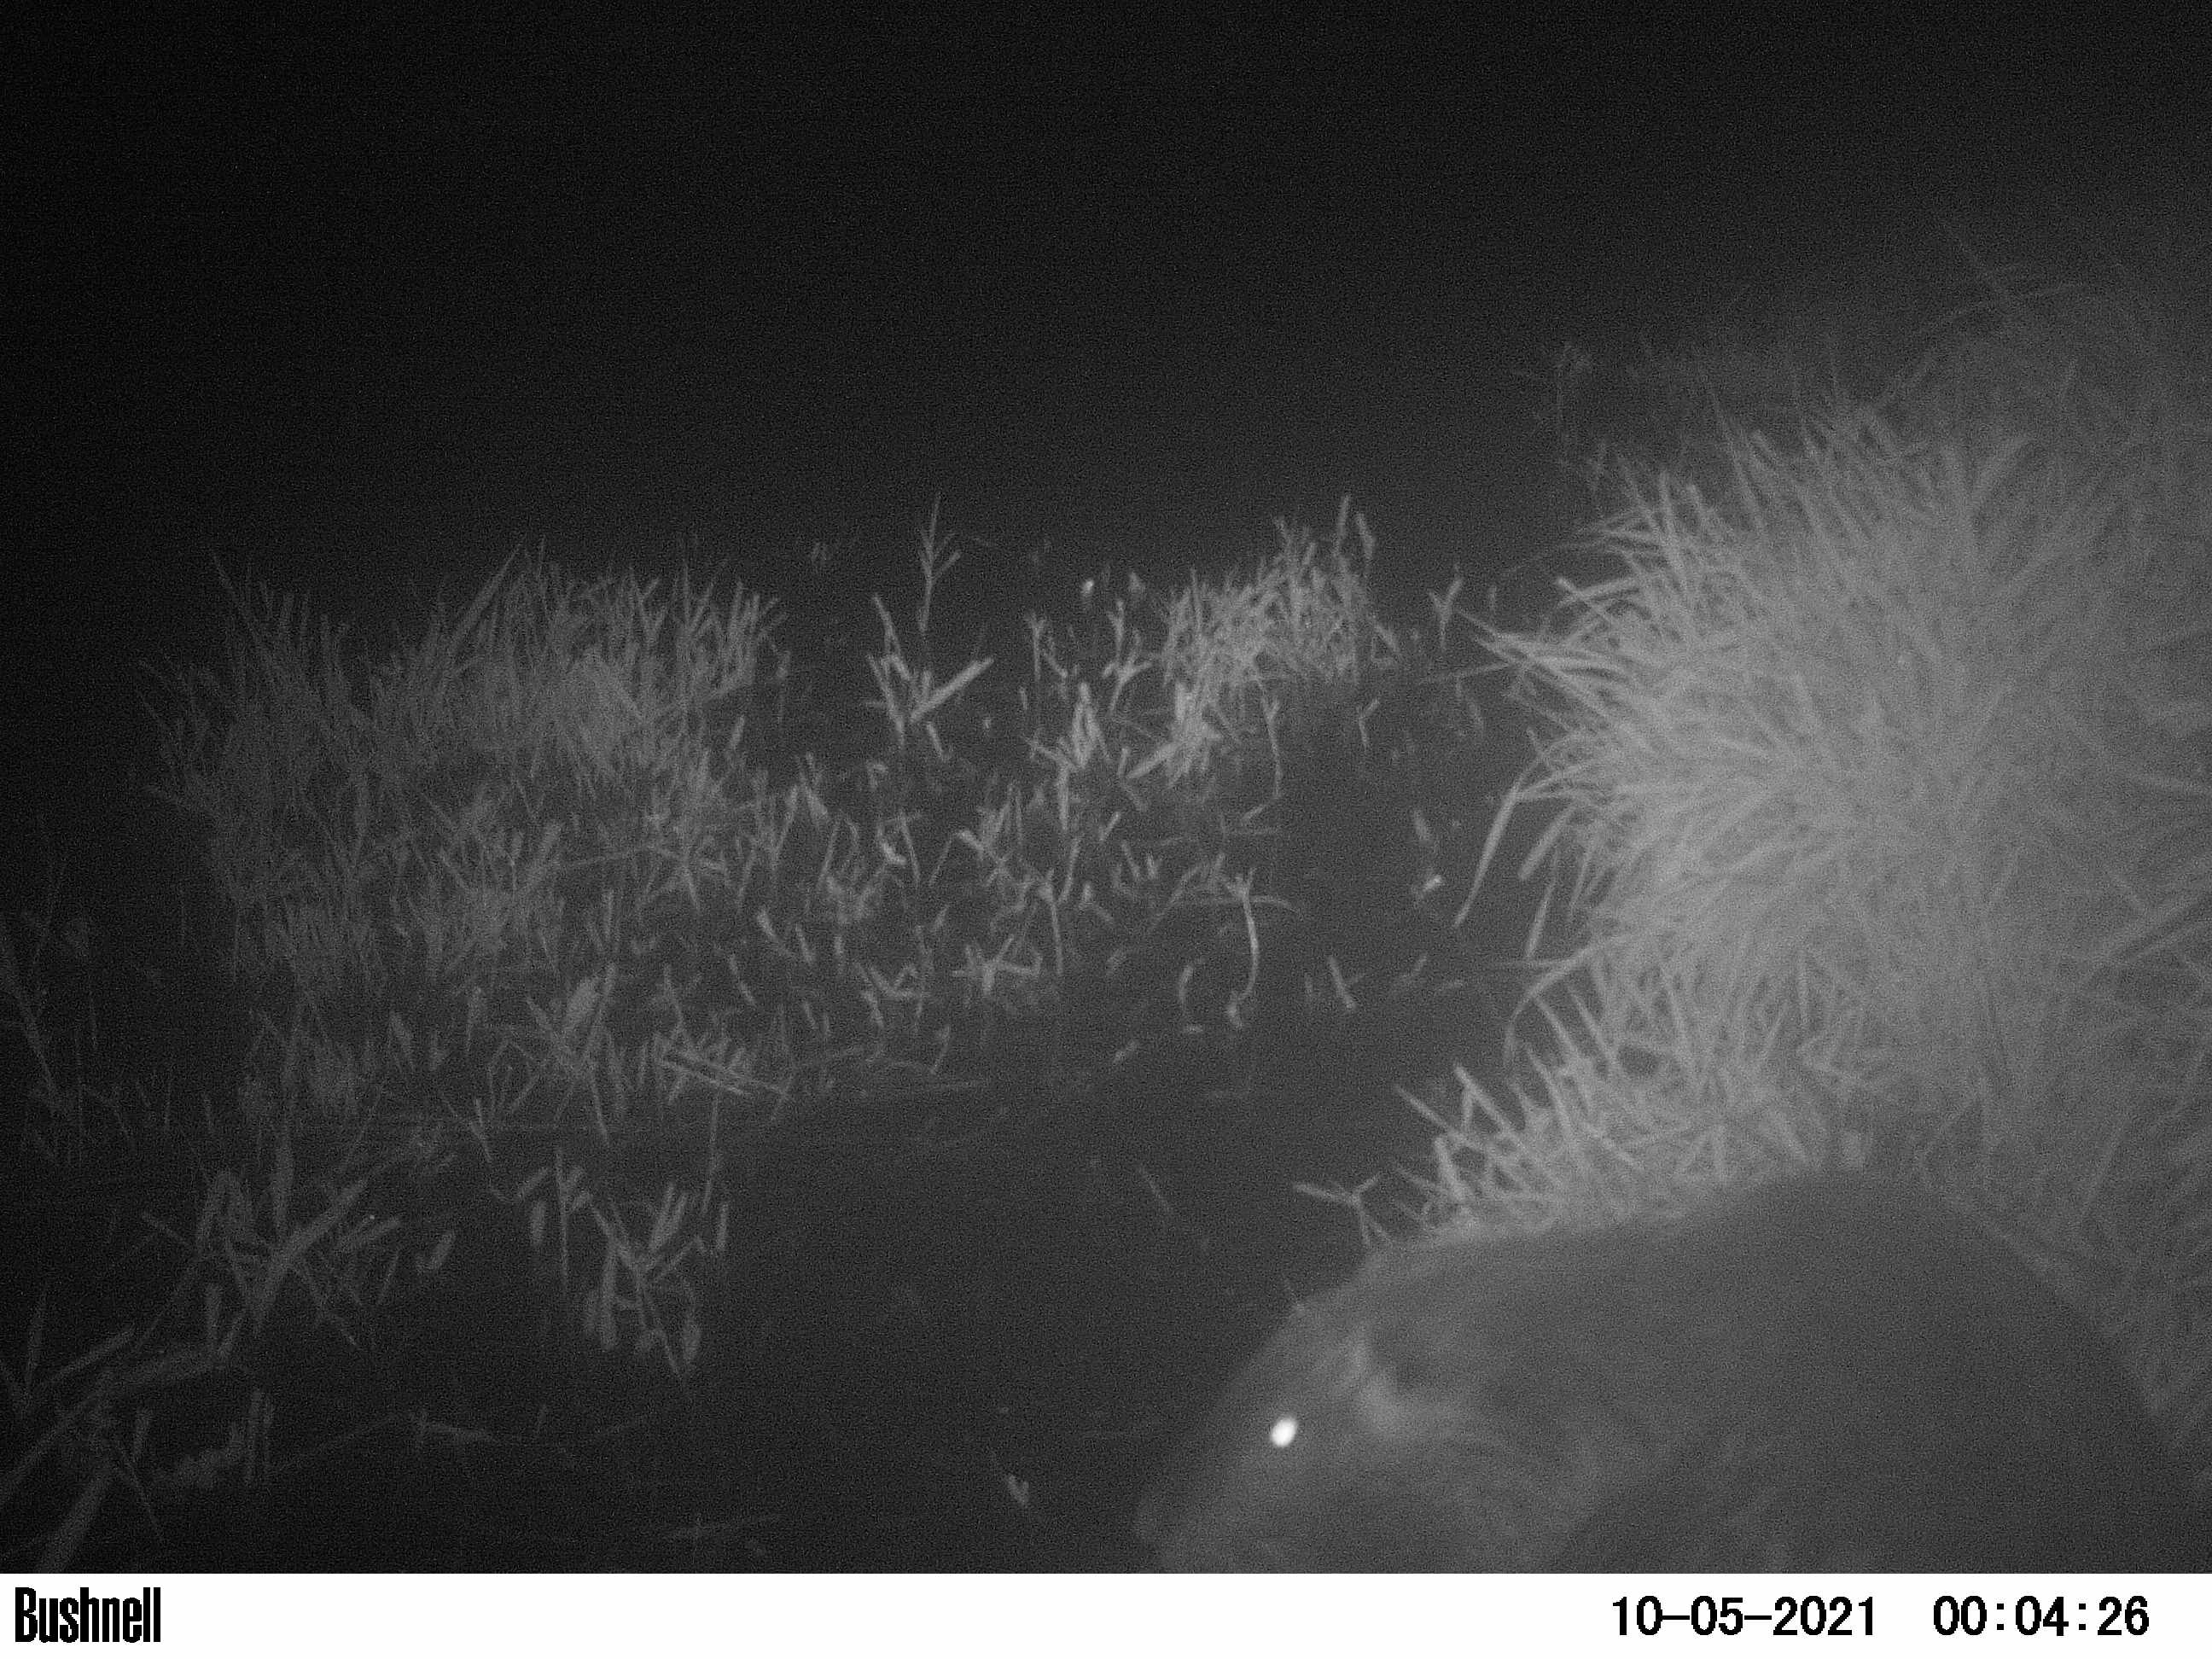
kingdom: Animalia
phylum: Chordata
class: Mammalia
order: Rodentia
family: Myocastoridae
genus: Myocastor
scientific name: Myocastor coypus
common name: Coypu
